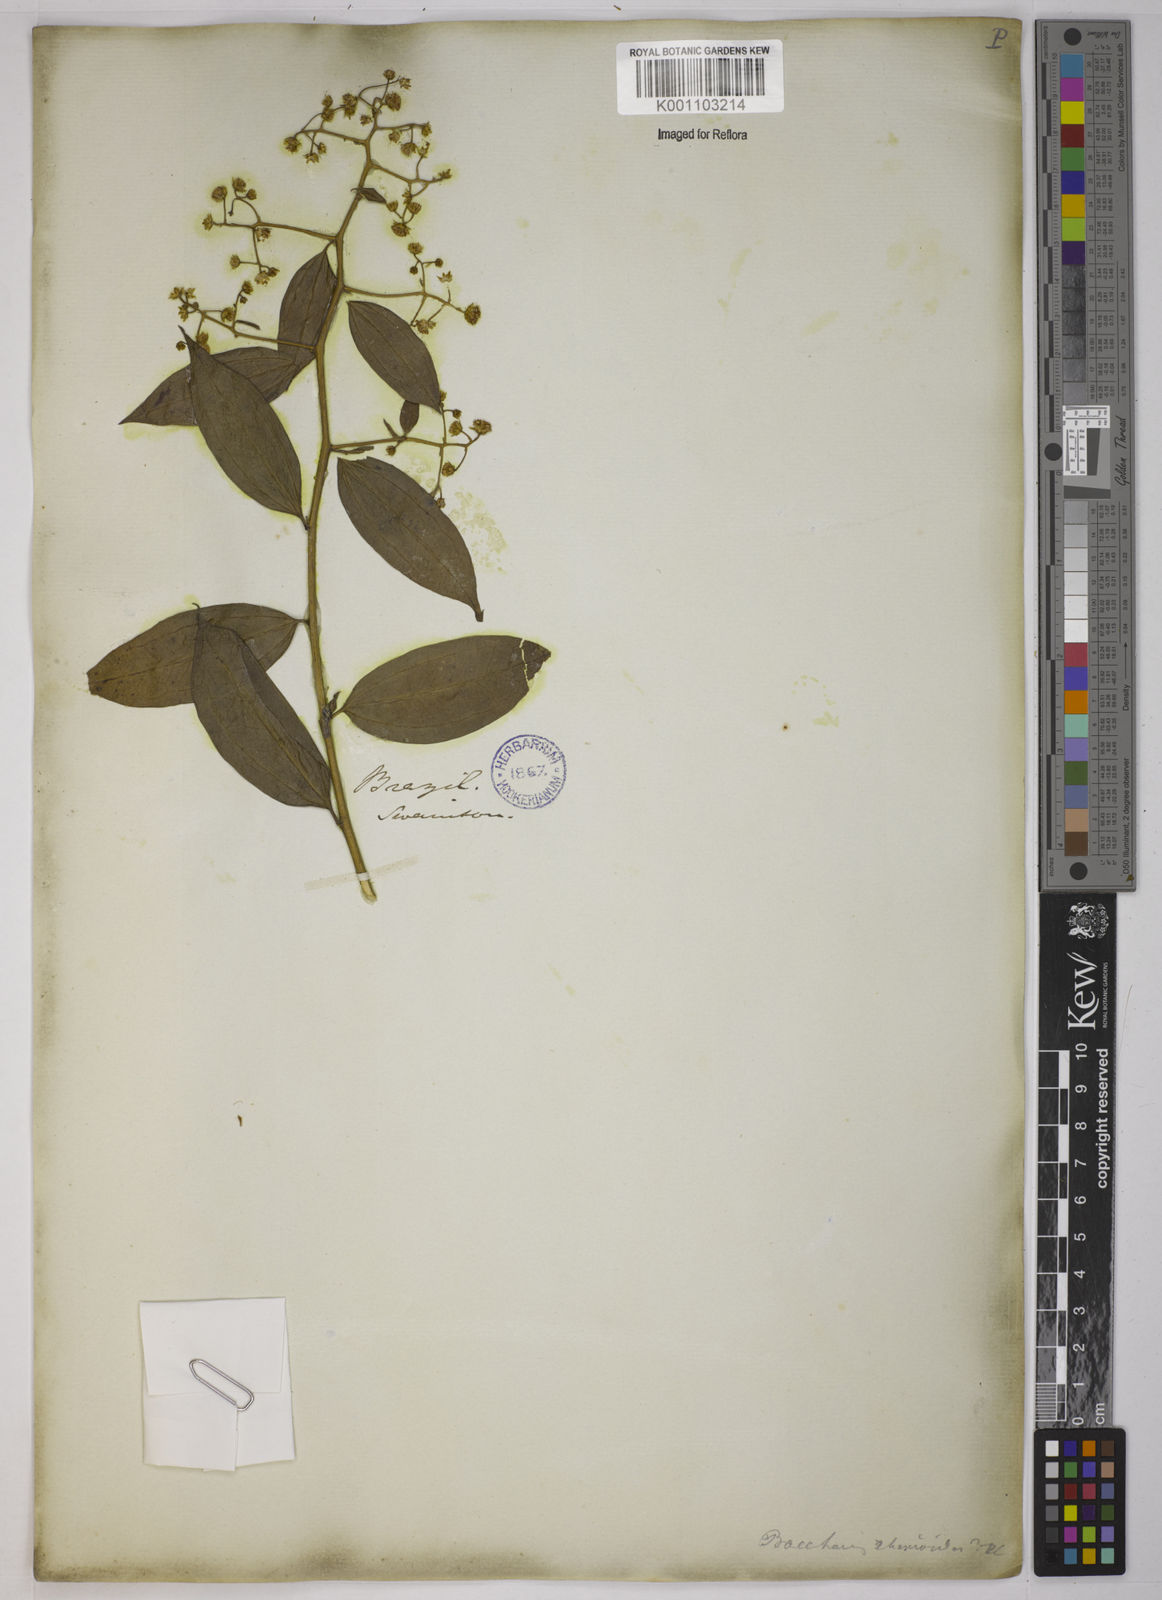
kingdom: Plantae
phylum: Tracheophyta
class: Magnoliopsida
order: Asterales
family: Asteraceae
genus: Baccharis
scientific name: Baccharis trinervis
